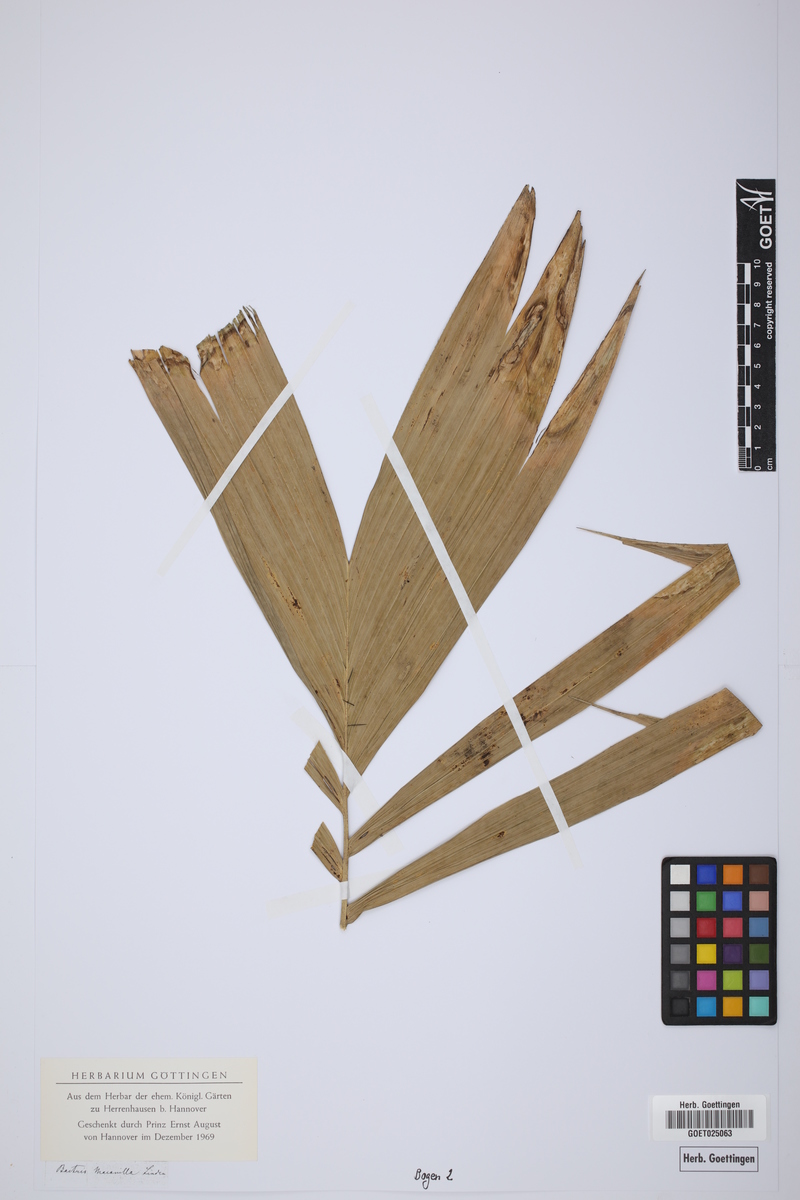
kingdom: Plantae
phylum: Tracheophyta
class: Liliopsida
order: Arecales
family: Arecaceae
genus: Bactris
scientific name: Bactris macanilla
